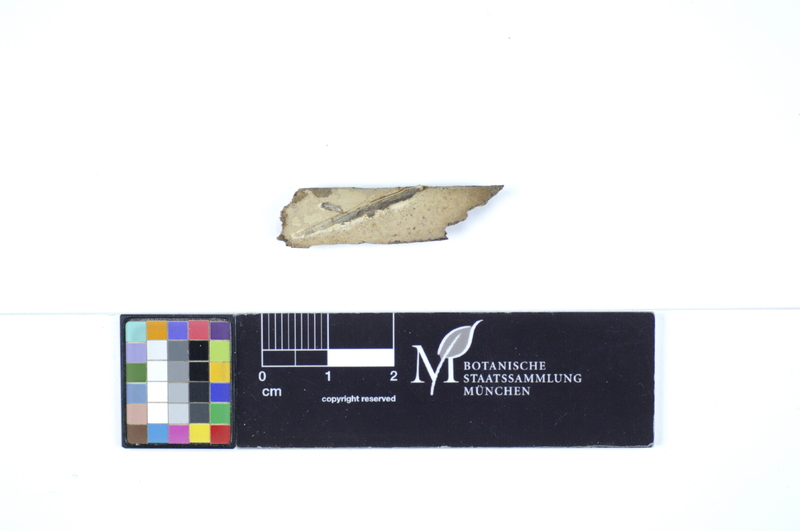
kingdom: Fungi
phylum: Basidiomycota
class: Agaricomycetes
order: Polyporales
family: Sparassidaceae
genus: Crustoderma
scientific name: Crustoderma cryptocallimon
